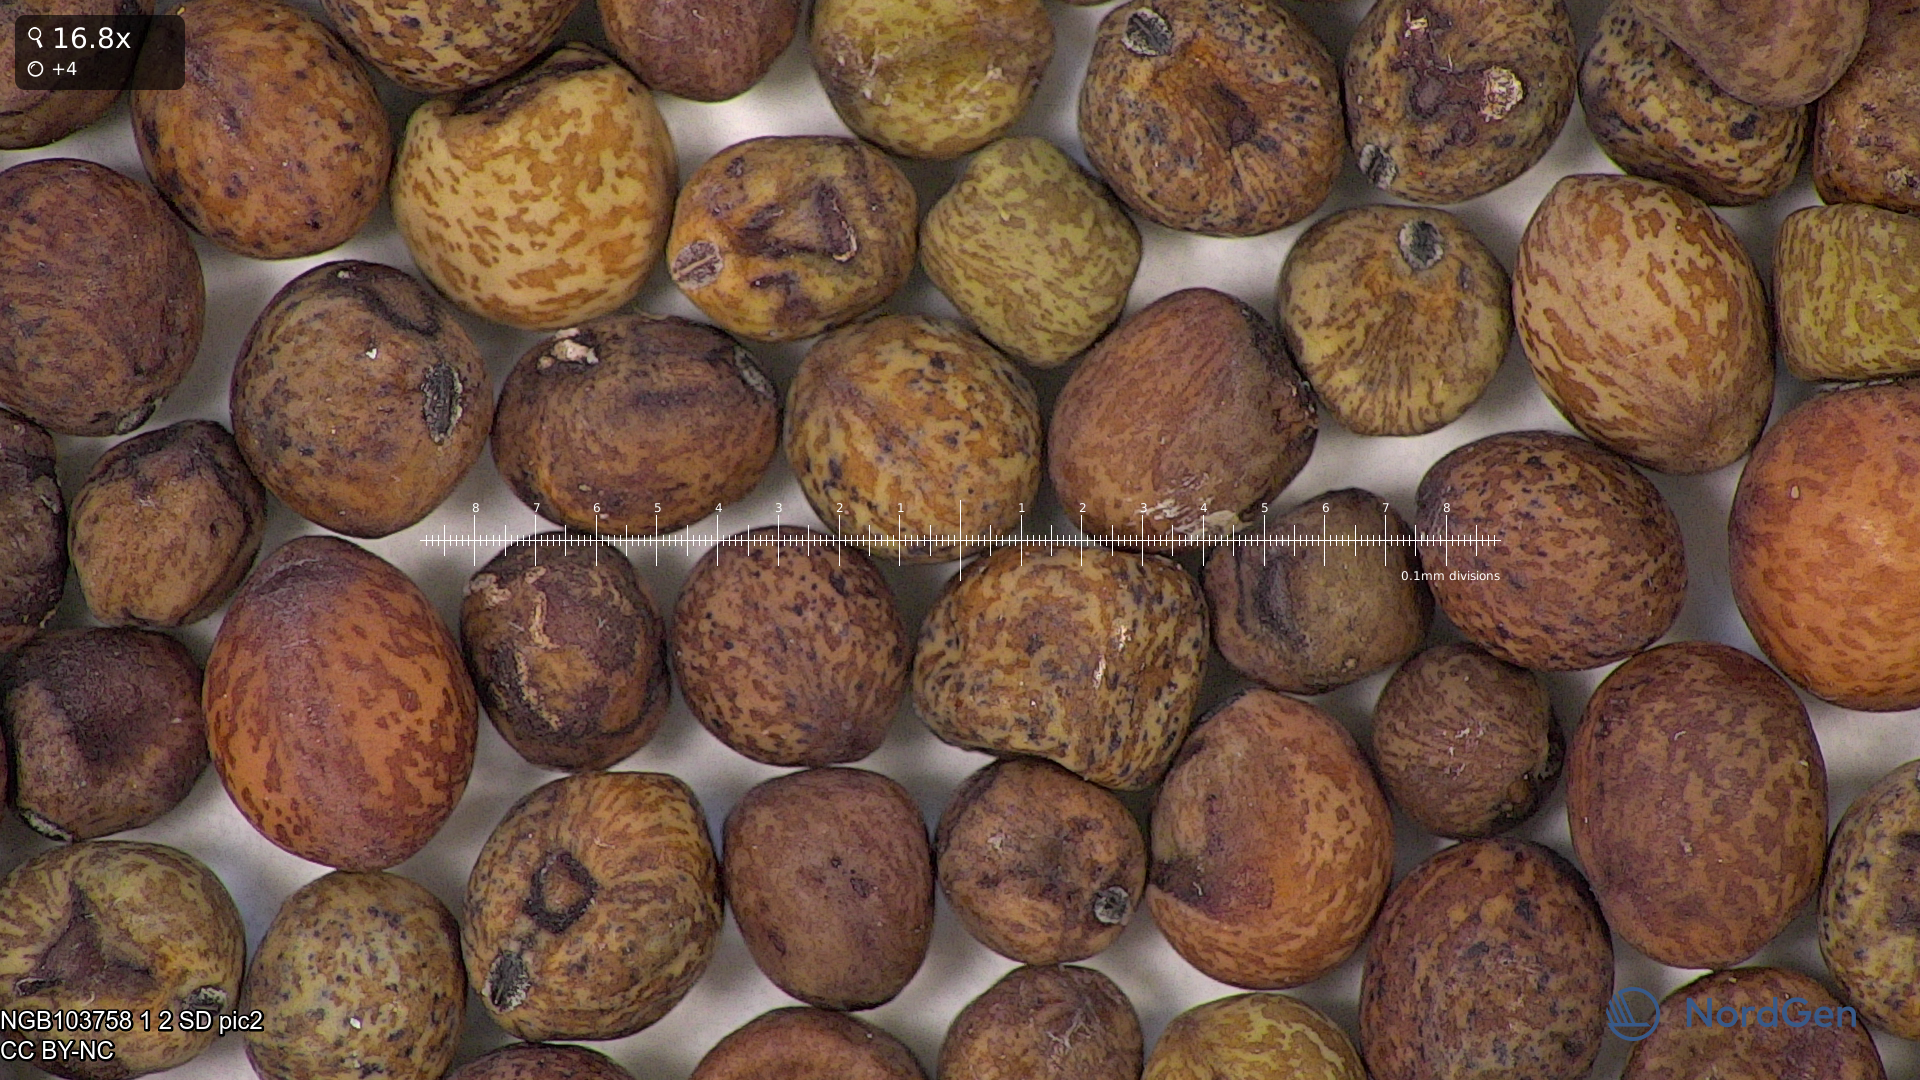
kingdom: Plantae
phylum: Tracheophyta
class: Magnoliopsida
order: Fabales
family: Fabaceae
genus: Lathyrus
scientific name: Lathyrus oleraceus
